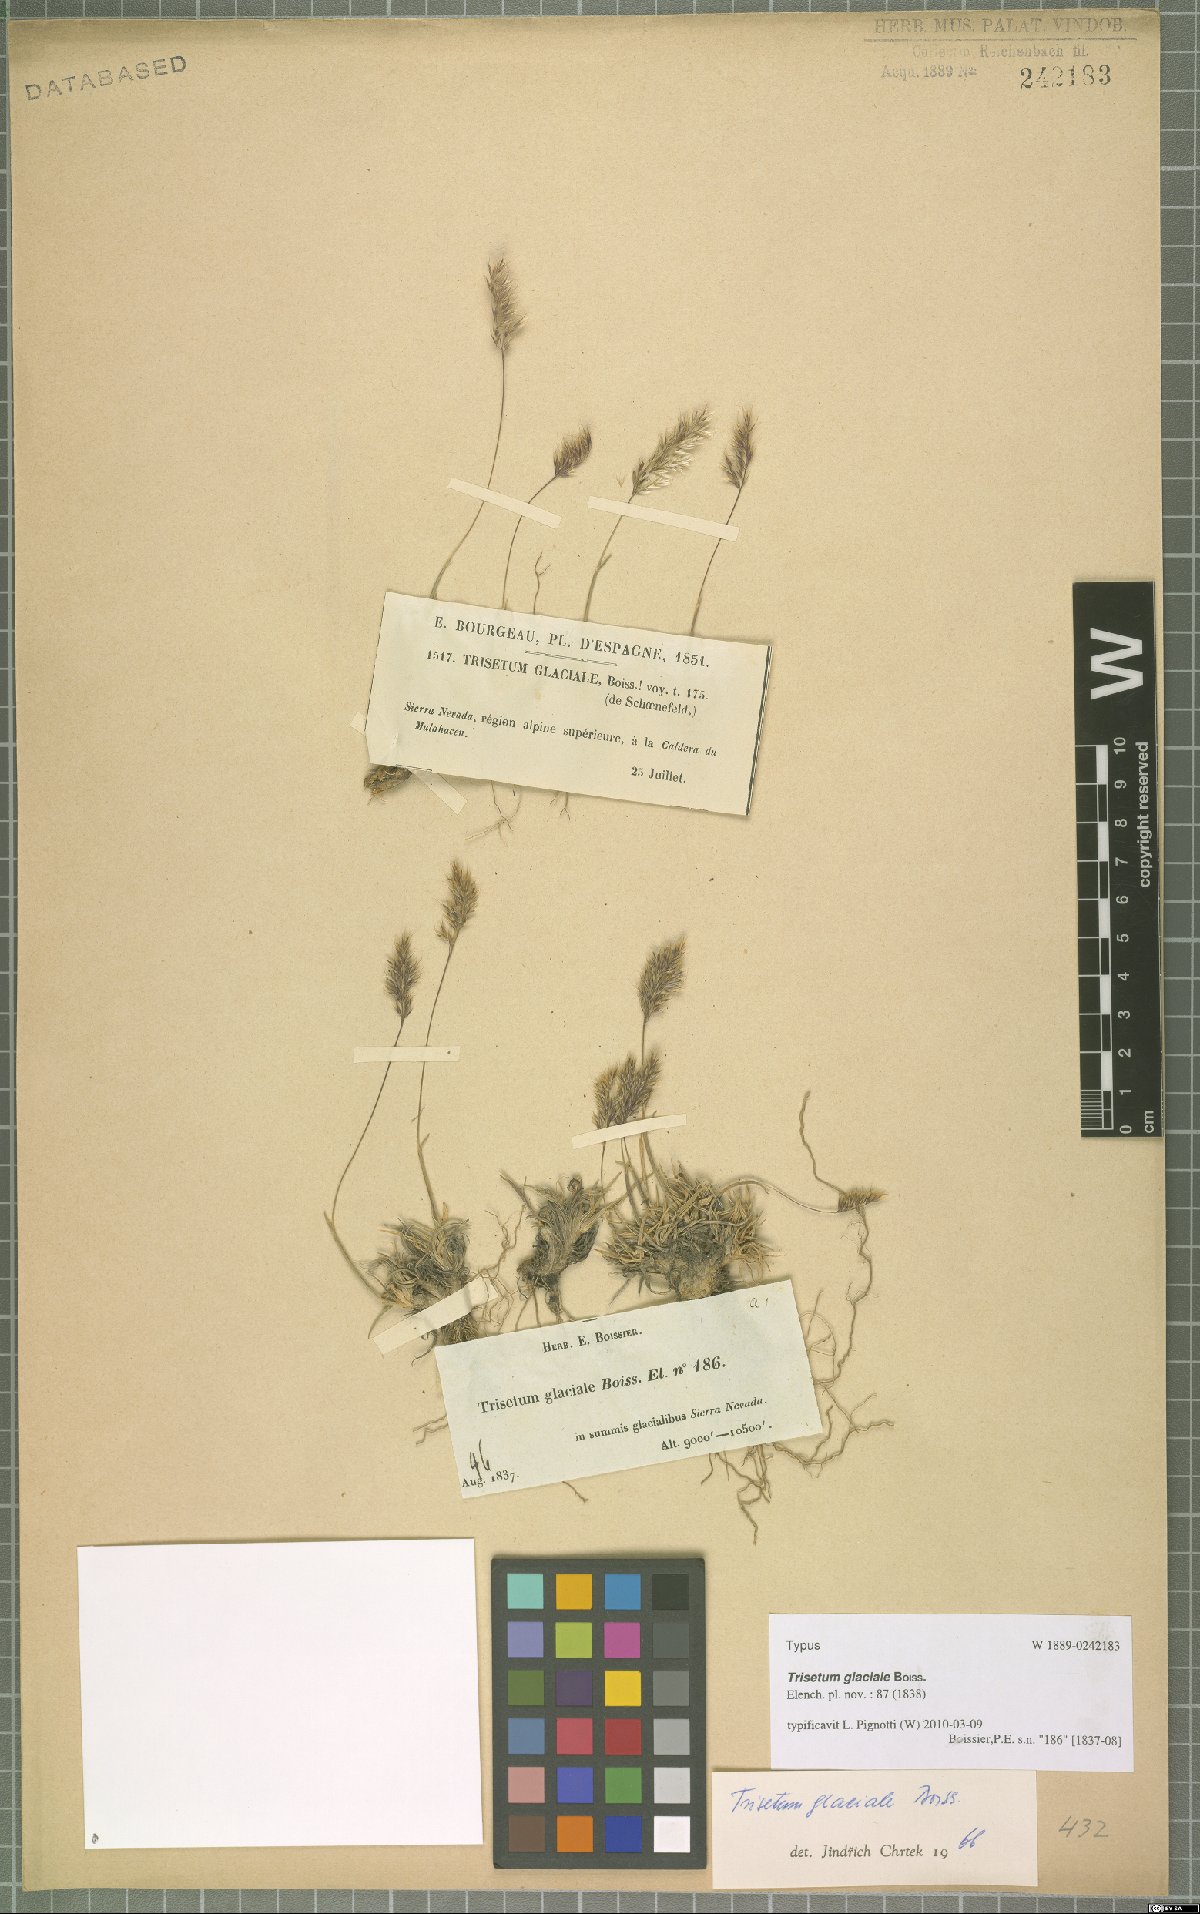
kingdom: Plantae
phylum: Tracheophyta
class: Liliopsida
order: Poales
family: Poaceae
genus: Acrospelion
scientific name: Acrospelion glaciale
